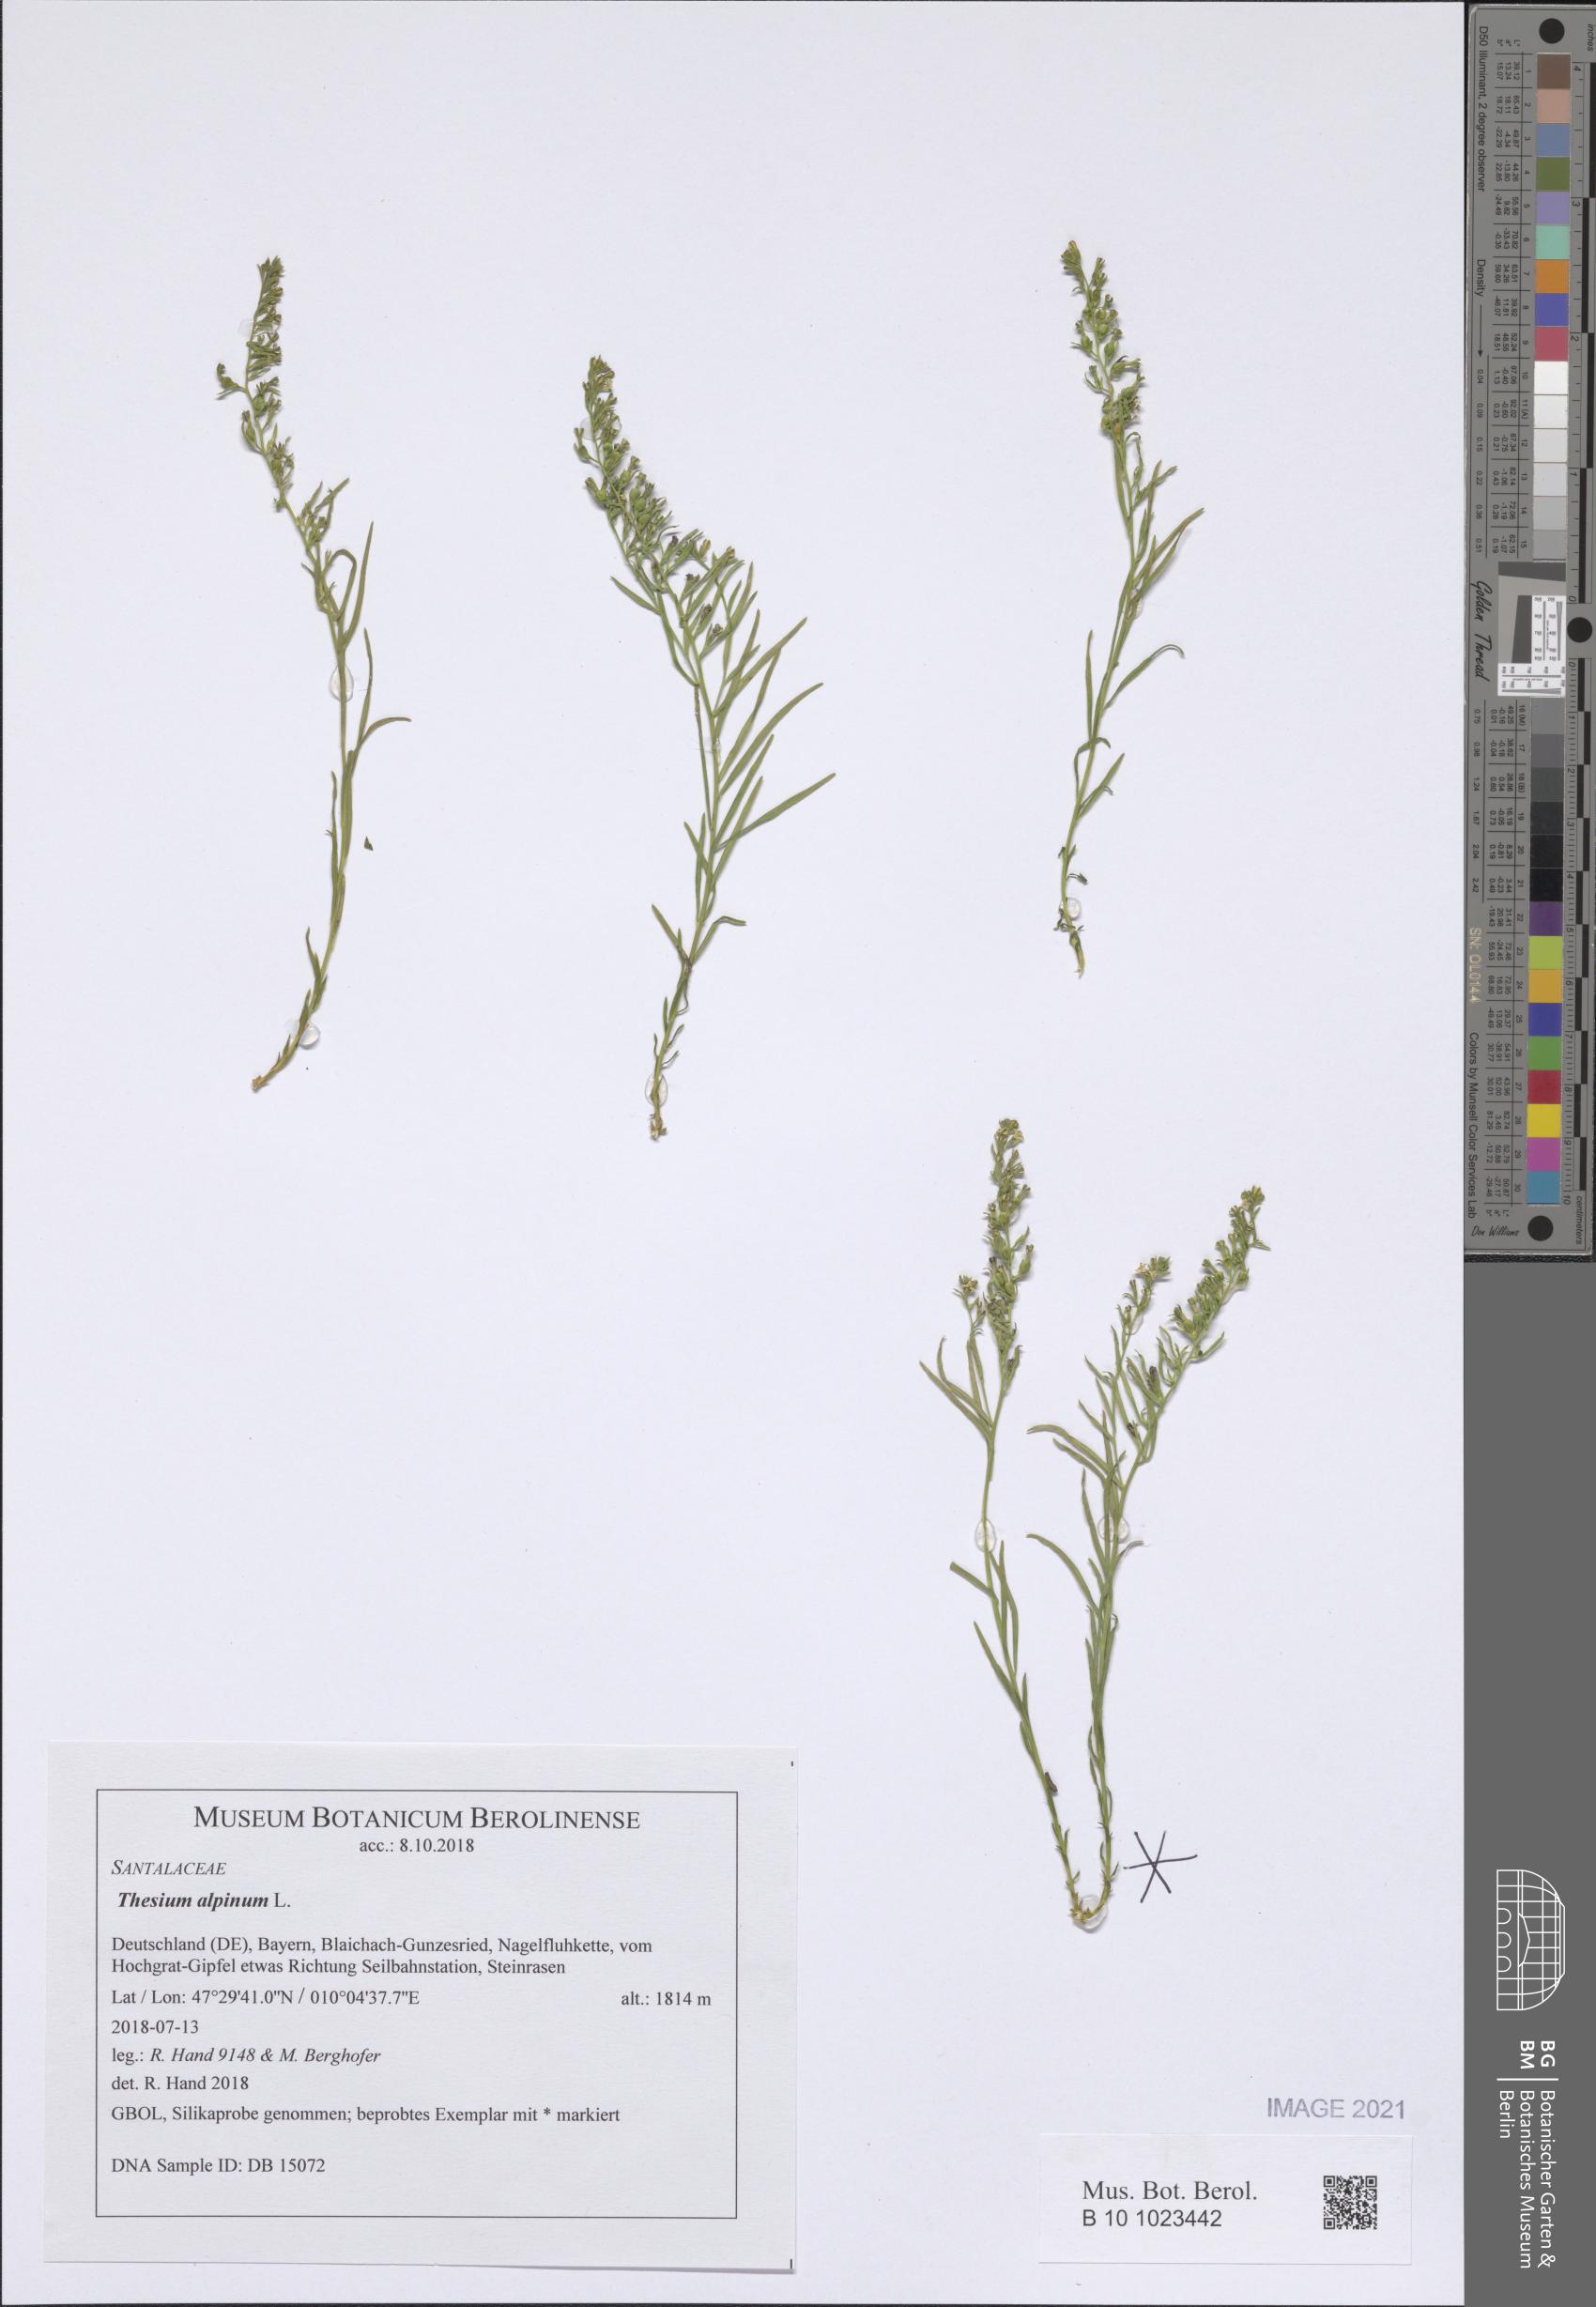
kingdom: Plantae
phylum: Tracheophyta
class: Magnoliopsida
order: Santalales
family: Thesiaceae
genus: Thesium
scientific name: Thesium alpinum
